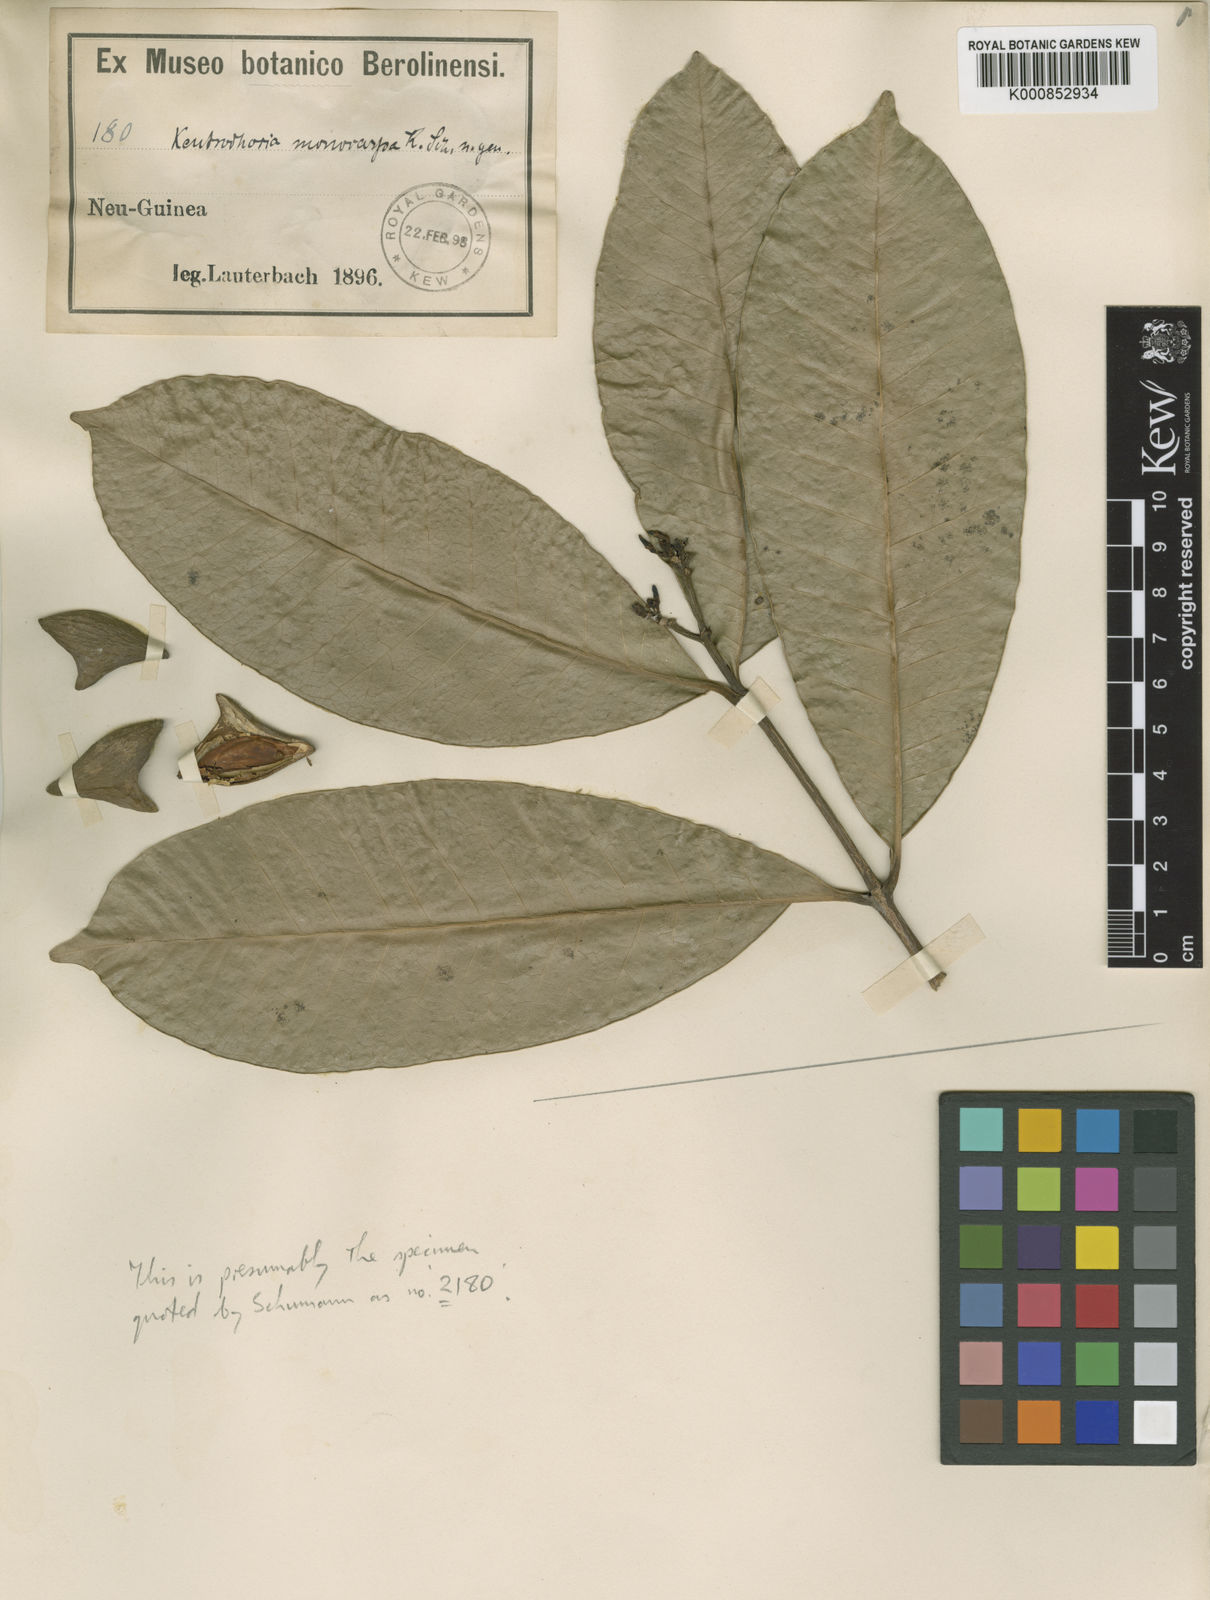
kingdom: Plantae
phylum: Tracheophyta
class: Magnoliopsida
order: Gentianales
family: Apocynaceae
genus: Kopsia
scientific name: Kopsia flavida
